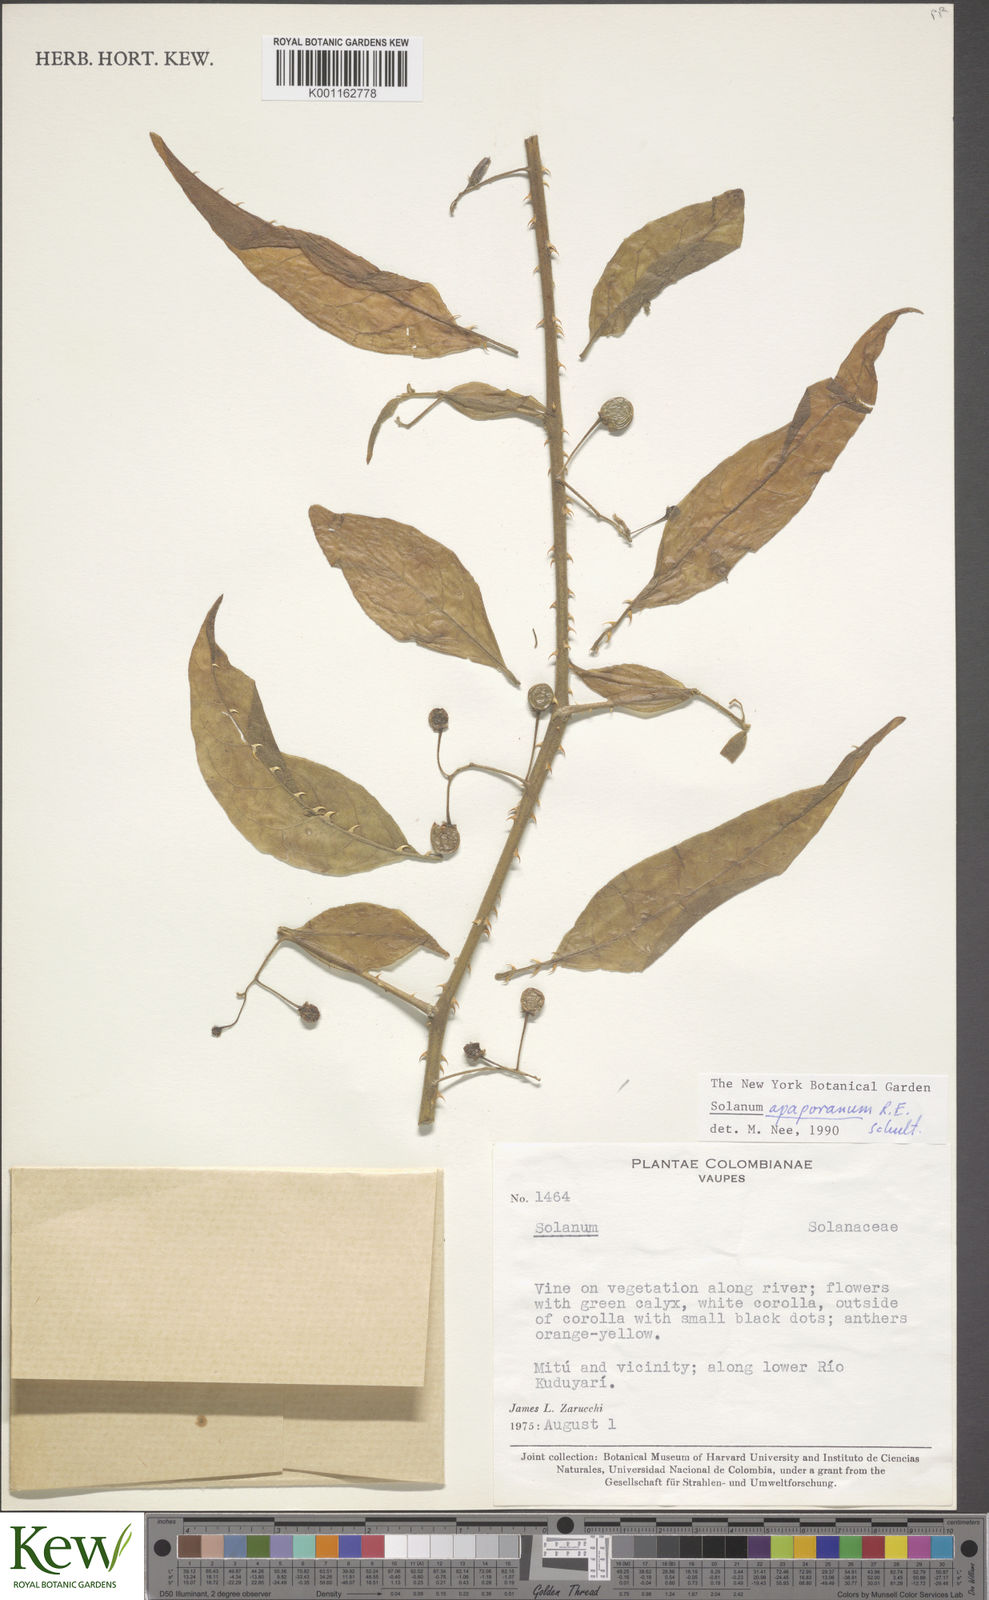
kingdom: Plantae
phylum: Tracheophyta
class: Magnoliopsida
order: Solanales
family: Solanaceae
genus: Solanum
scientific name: Solanum apaporanum
